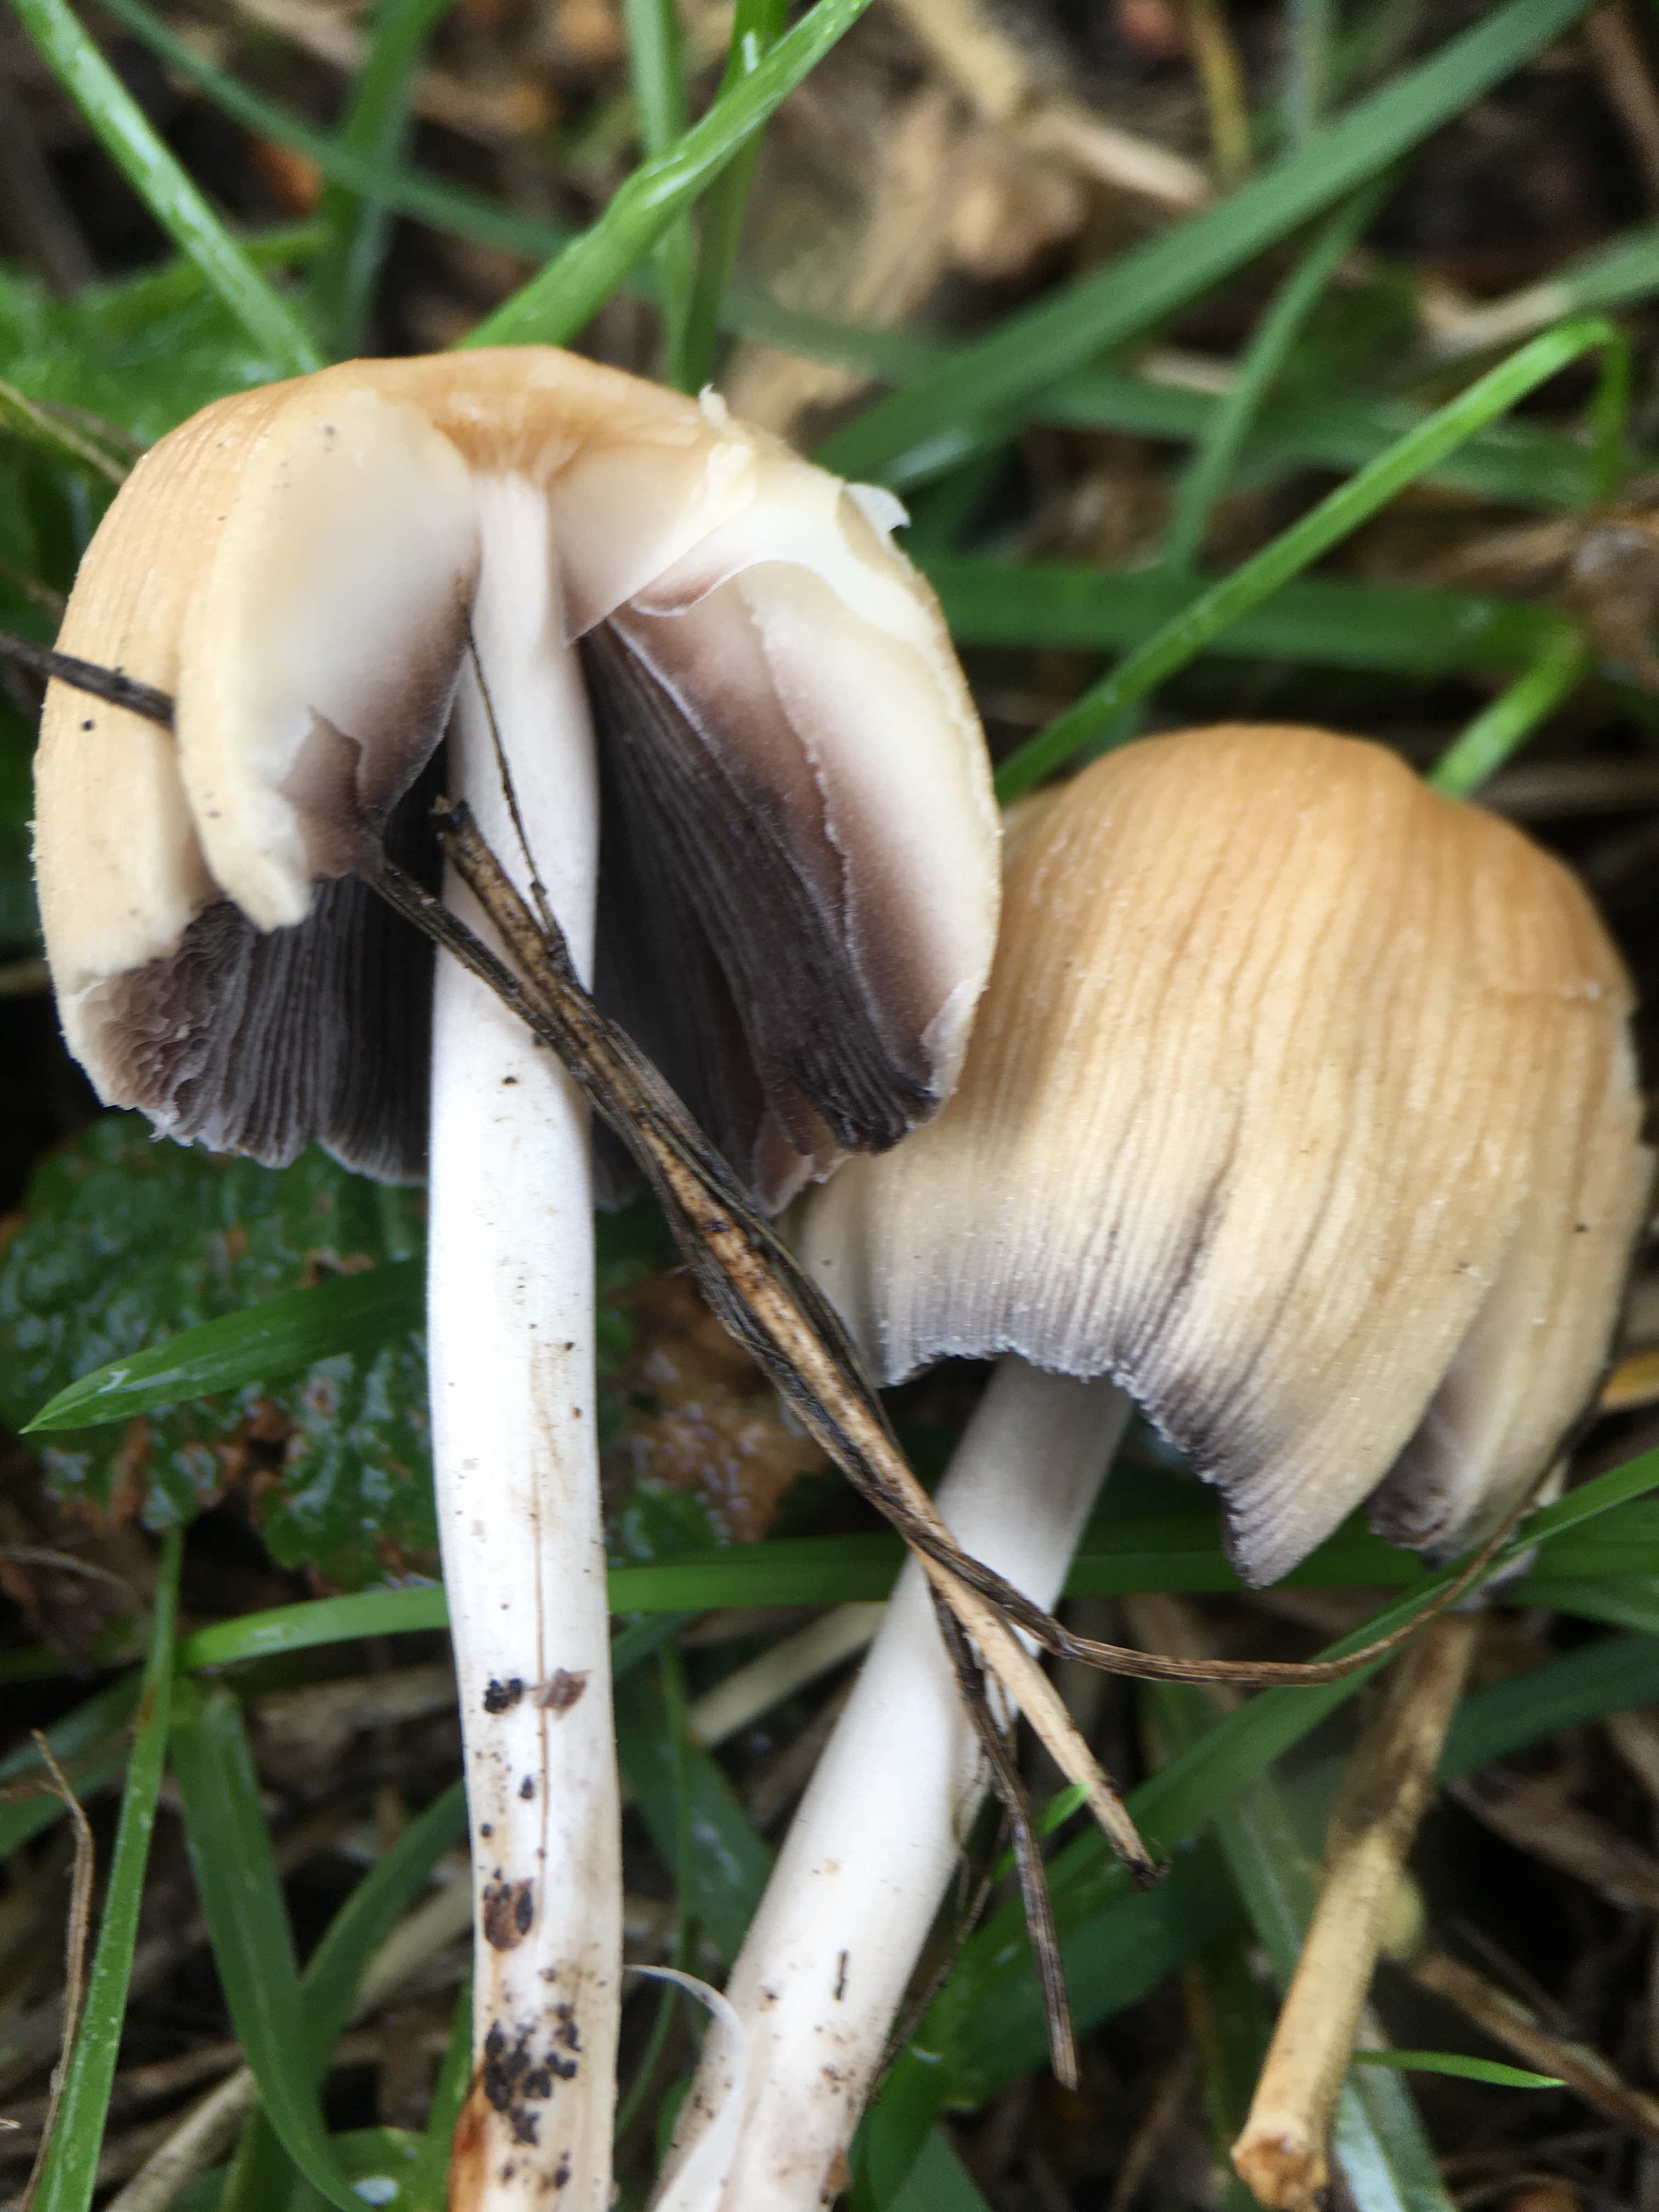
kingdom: Fungi
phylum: Basidiomycota
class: Agaricomycetes
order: Agaricales
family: Psathyrellaceae
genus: Coprinellus
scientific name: Coprinellus micaceus
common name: glimmer-blækhat
